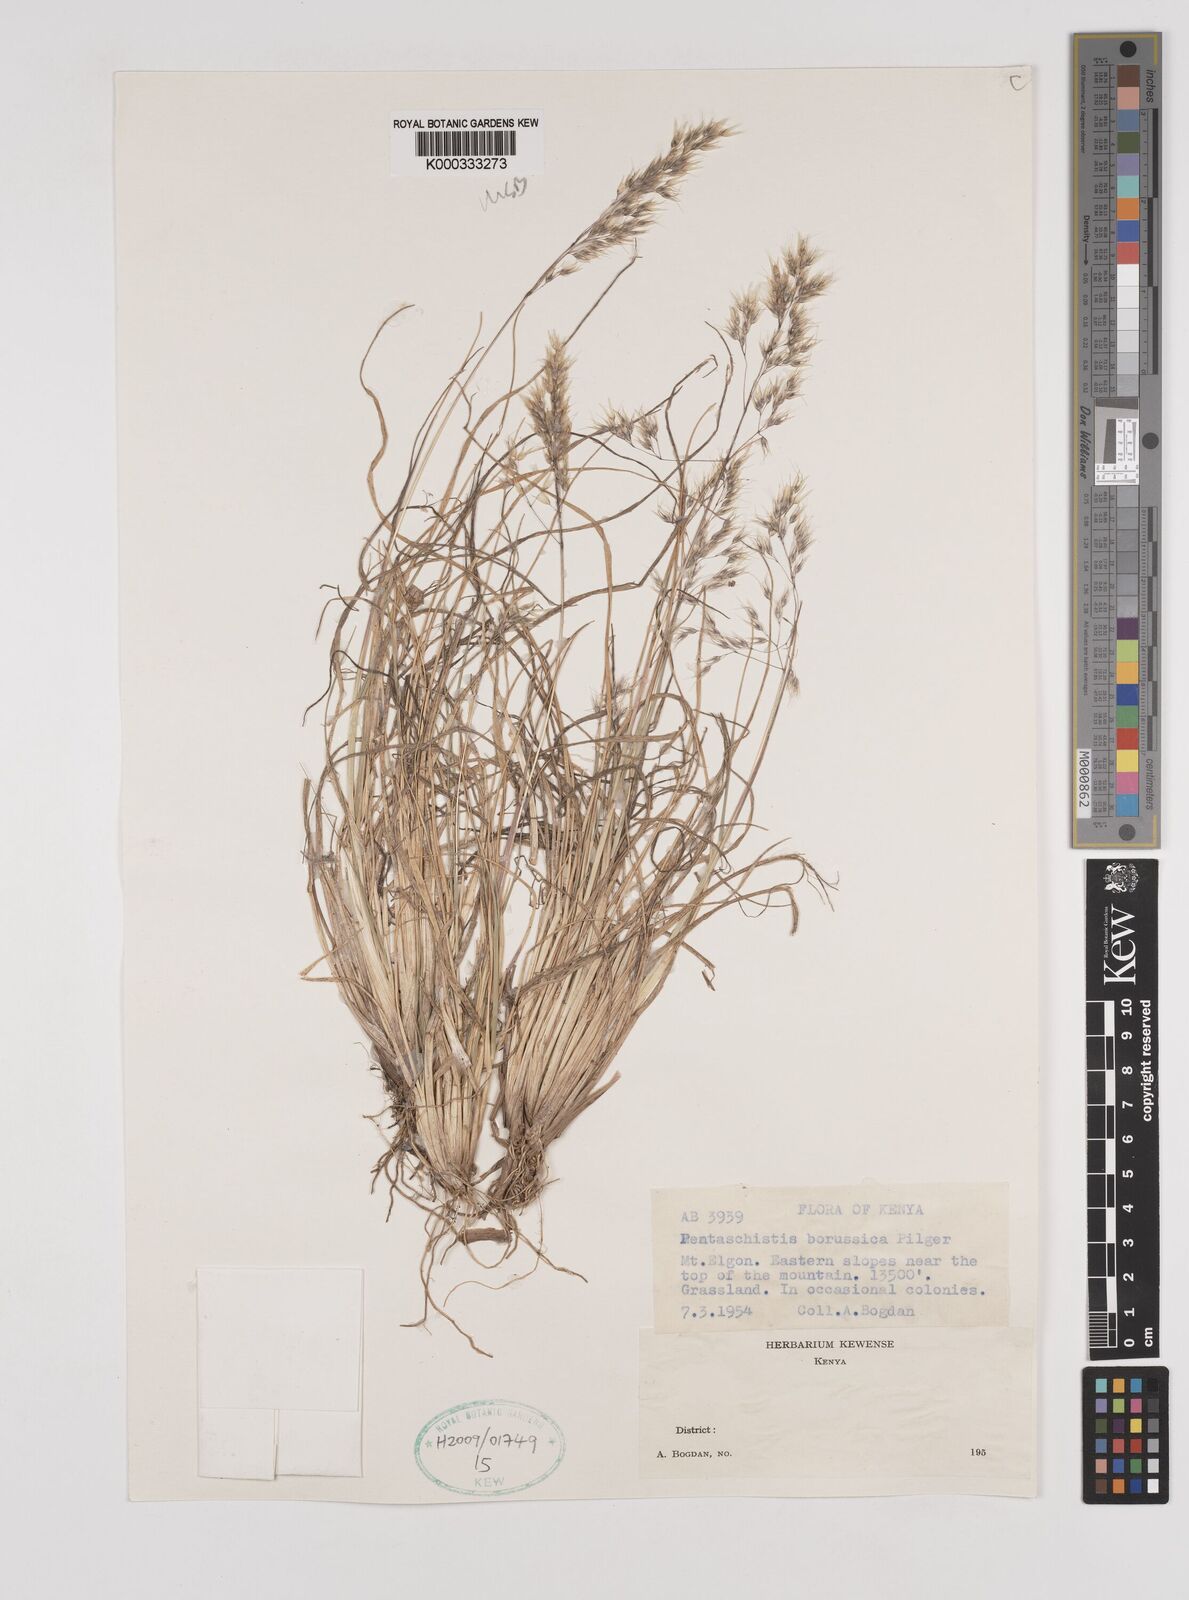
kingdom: Plantae
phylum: Tracheophyta
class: Liliopsida
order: Poales
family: Poaceae
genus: Pentameris
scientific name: Pentameris borussica
